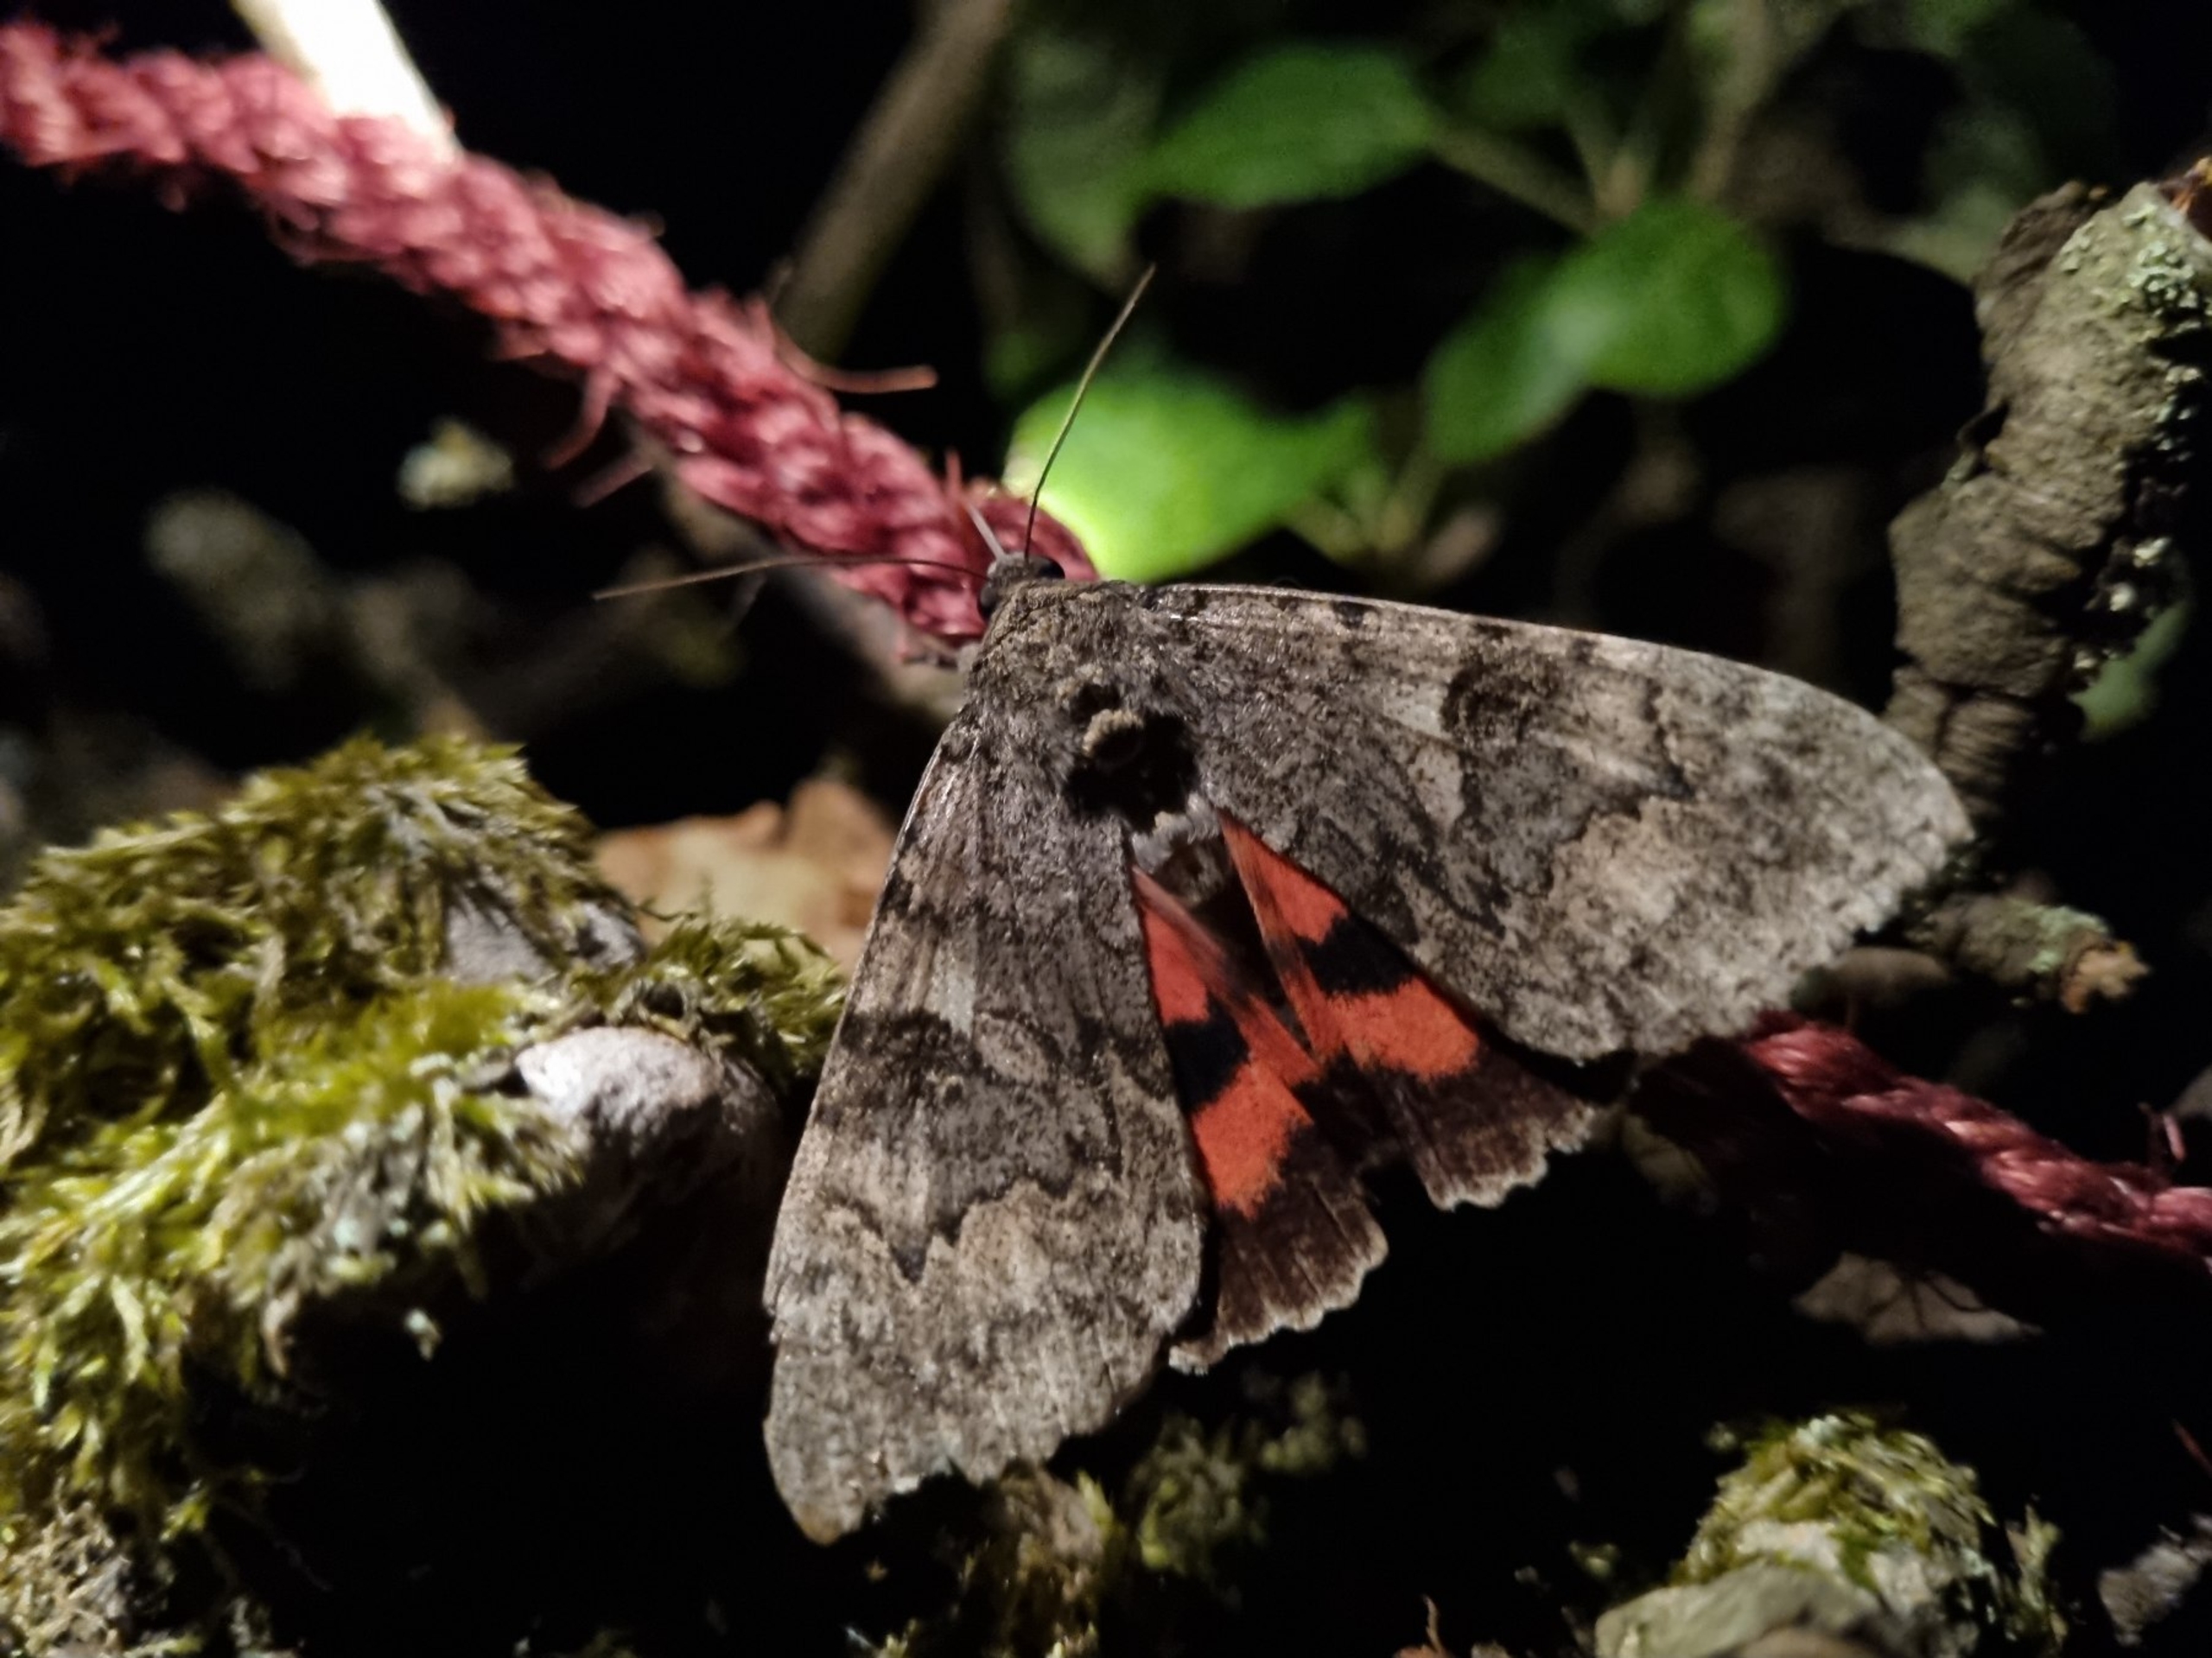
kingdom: Animalia
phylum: Arthropoda
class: Insecta
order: Lepidoptera
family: Erebidae
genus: Catocala
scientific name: Catocala nupta
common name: Rødt ordensbånd
